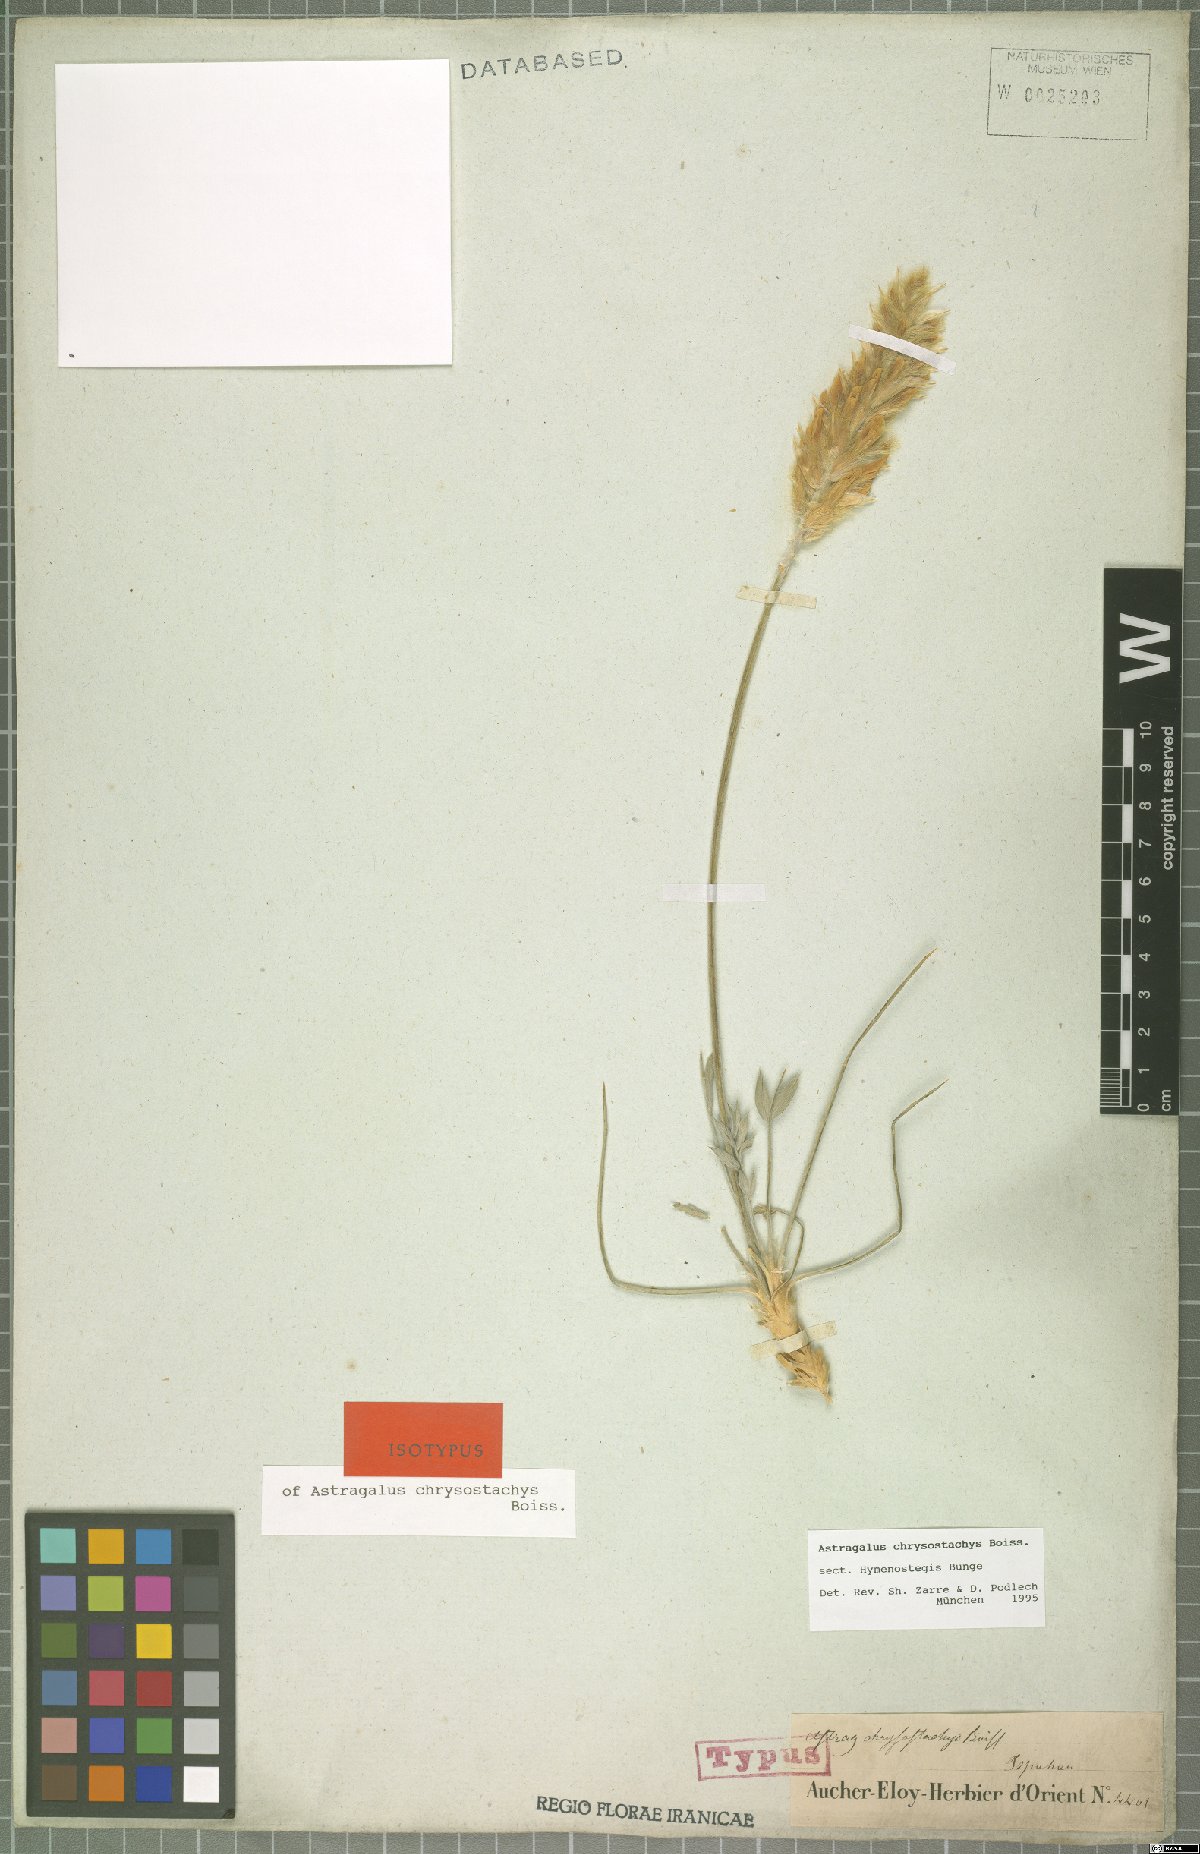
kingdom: Plantae
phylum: Tracheophyta
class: Magnoliopsida
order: Fabales
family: Fabaceae
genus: Astragalus
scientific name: Astragalus chrysostachys
